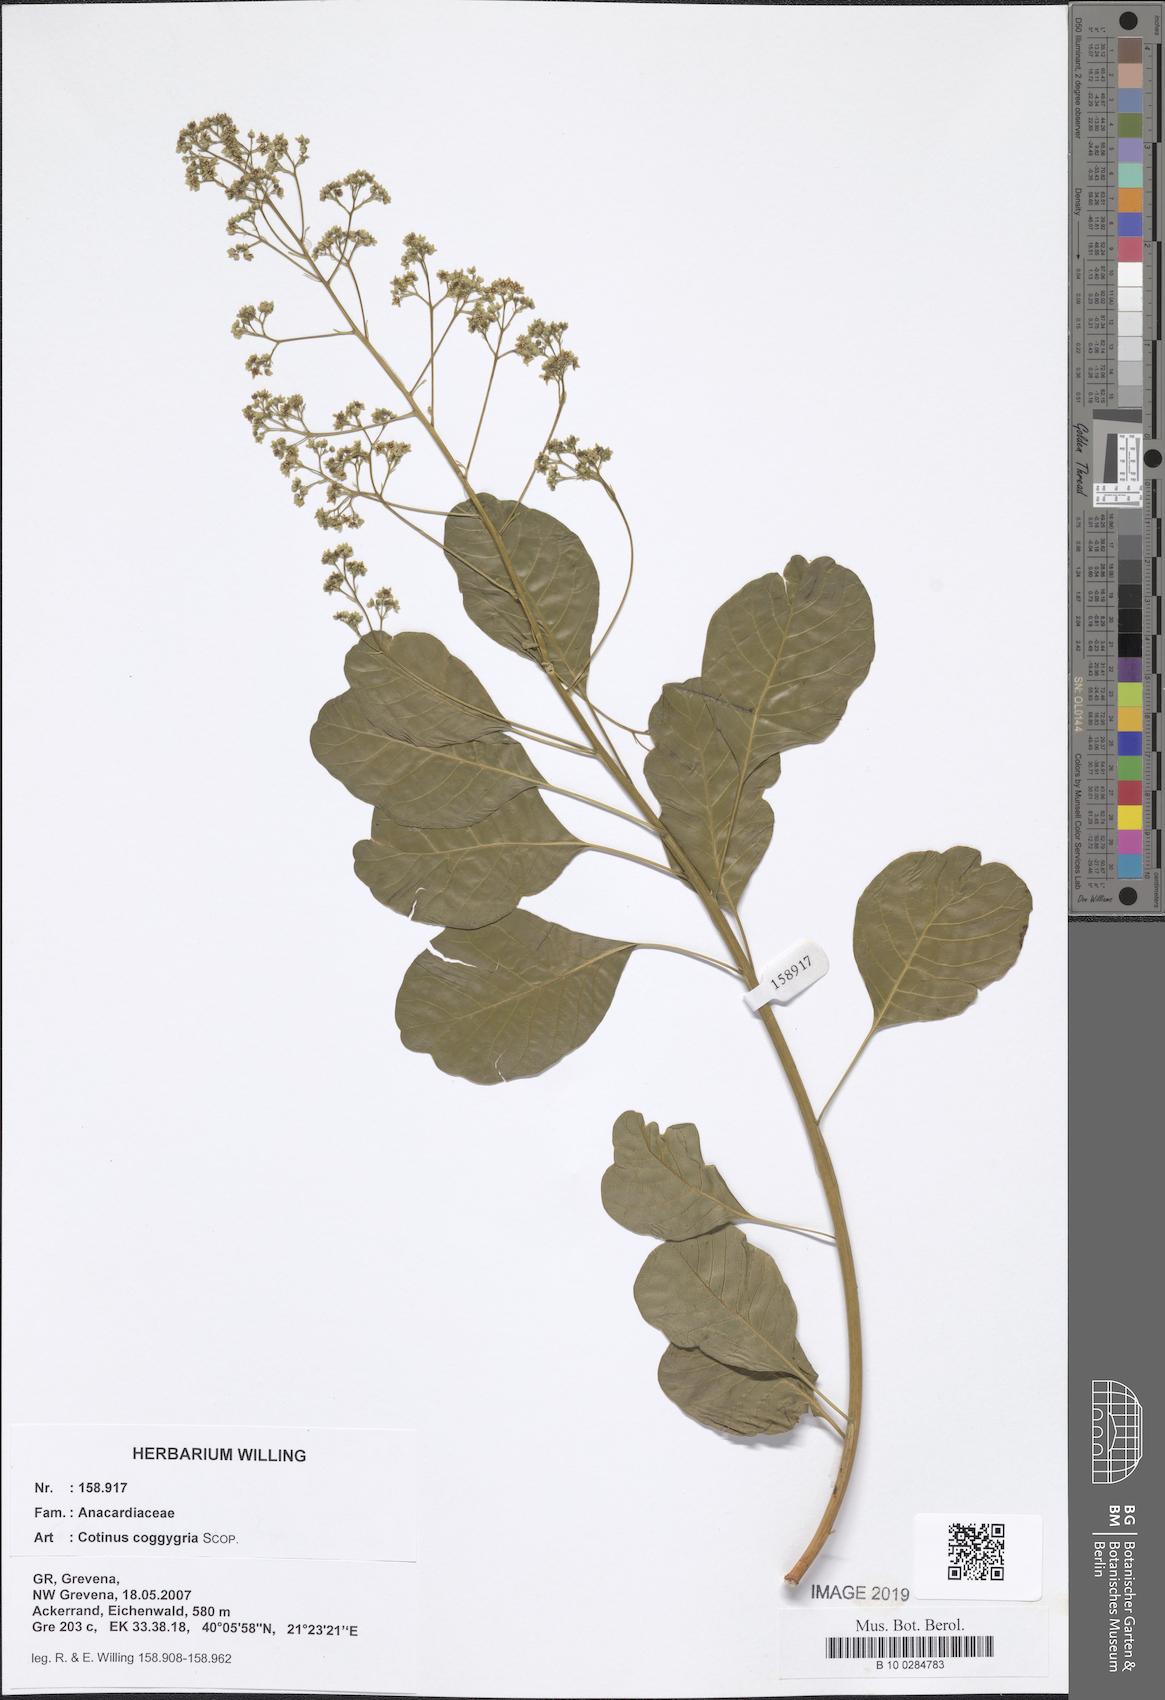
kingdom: Plantae
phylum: Tracheophyta
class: Magnoliopsida
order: Sapindales
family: Anacardiaceae
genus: Cotinus
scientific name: Cotinus coggygria
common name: Smoke-tree
